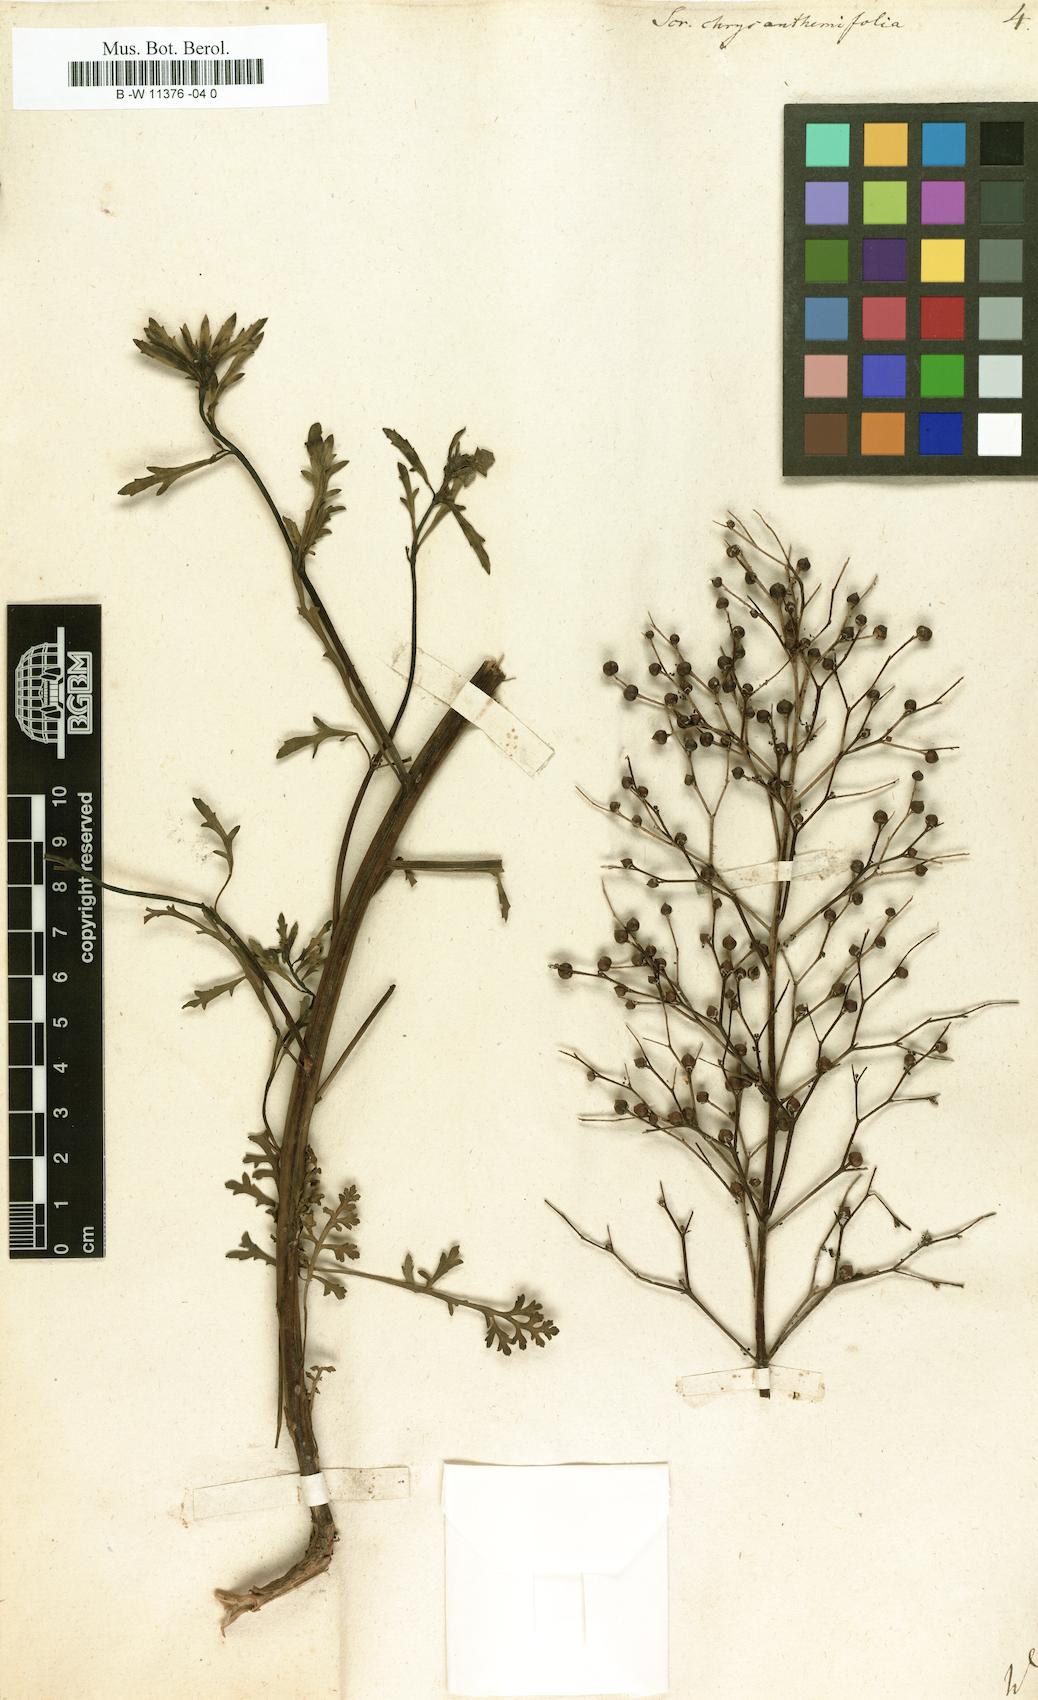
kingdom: Plantae
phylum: Tracheophyta
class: Magnoliopsida
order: Lamiales
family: Scrophulariaceae
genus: Scrophularia
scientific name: Scrophularia
